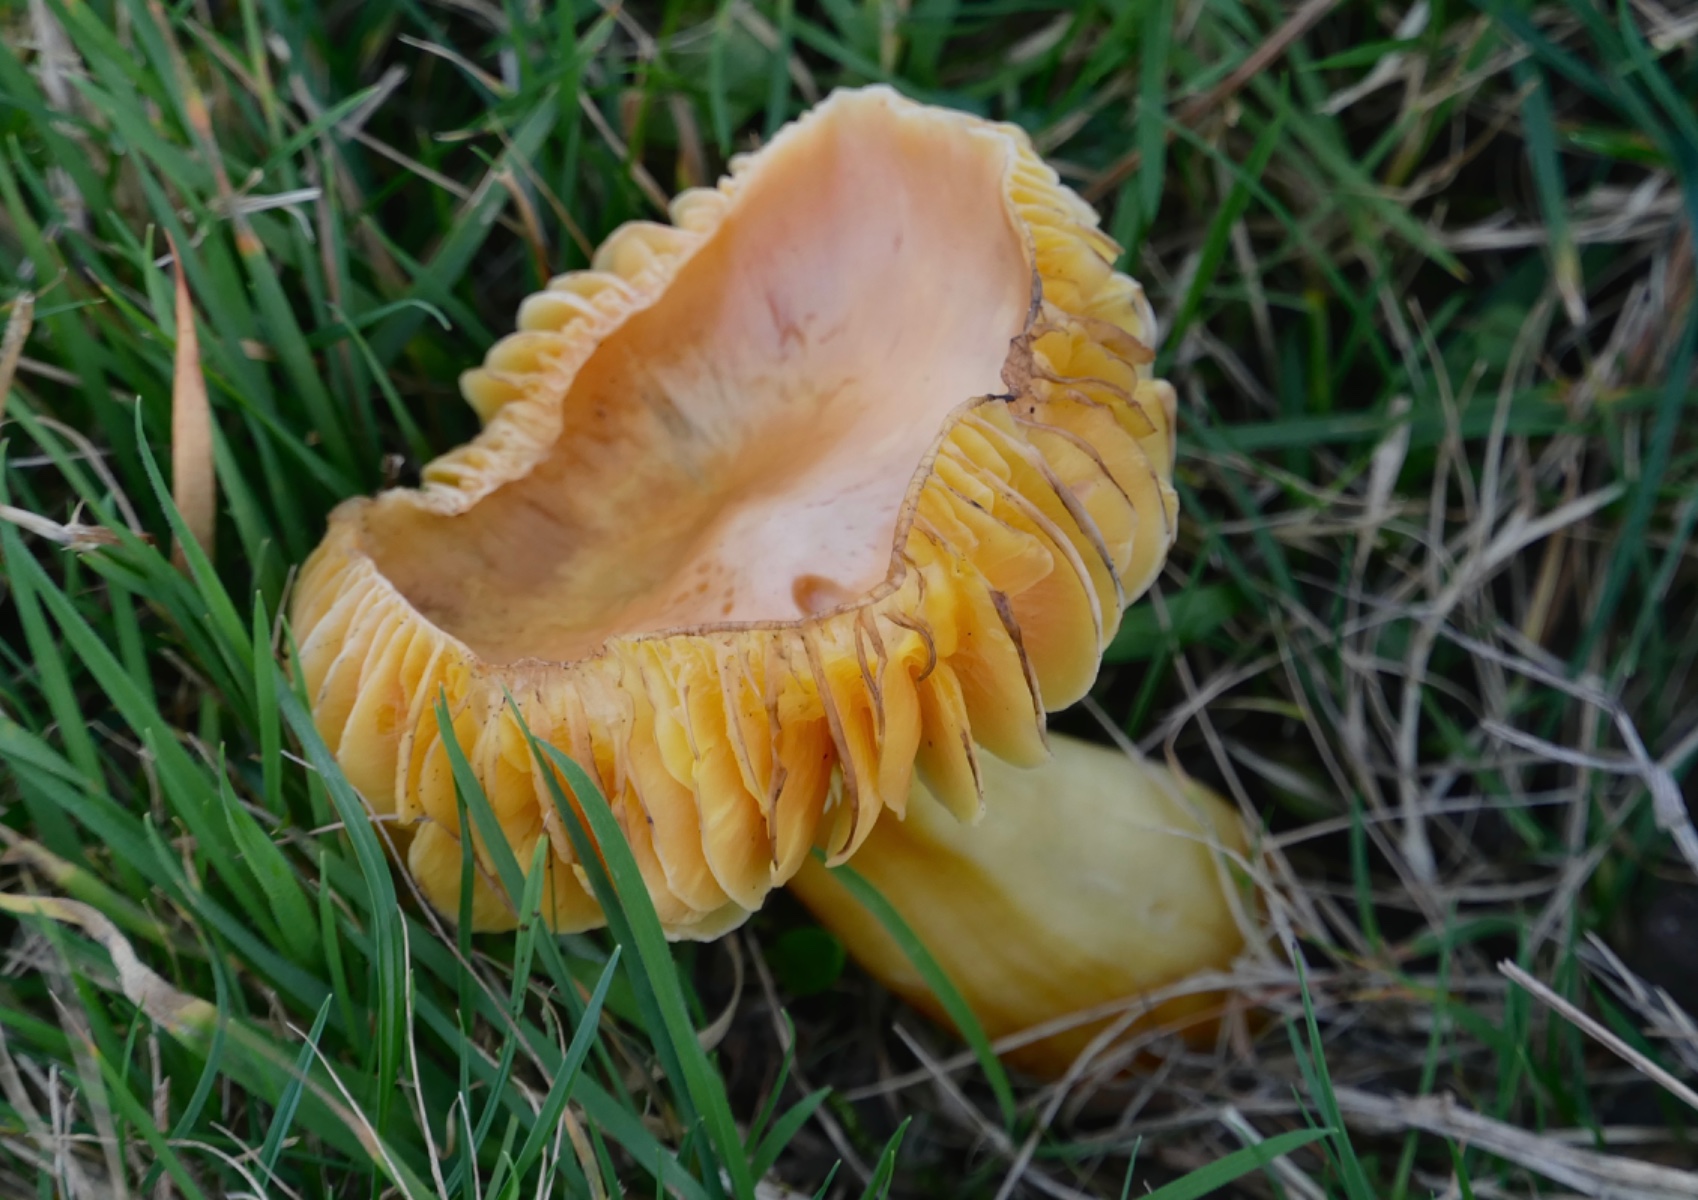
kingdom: Fungi
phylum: Basidiomycota
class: Agaricomycetes
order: Agaricales
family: Hygrophoraceae
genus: Hygrocybe
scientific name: Hygrocybe
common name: vokshat
